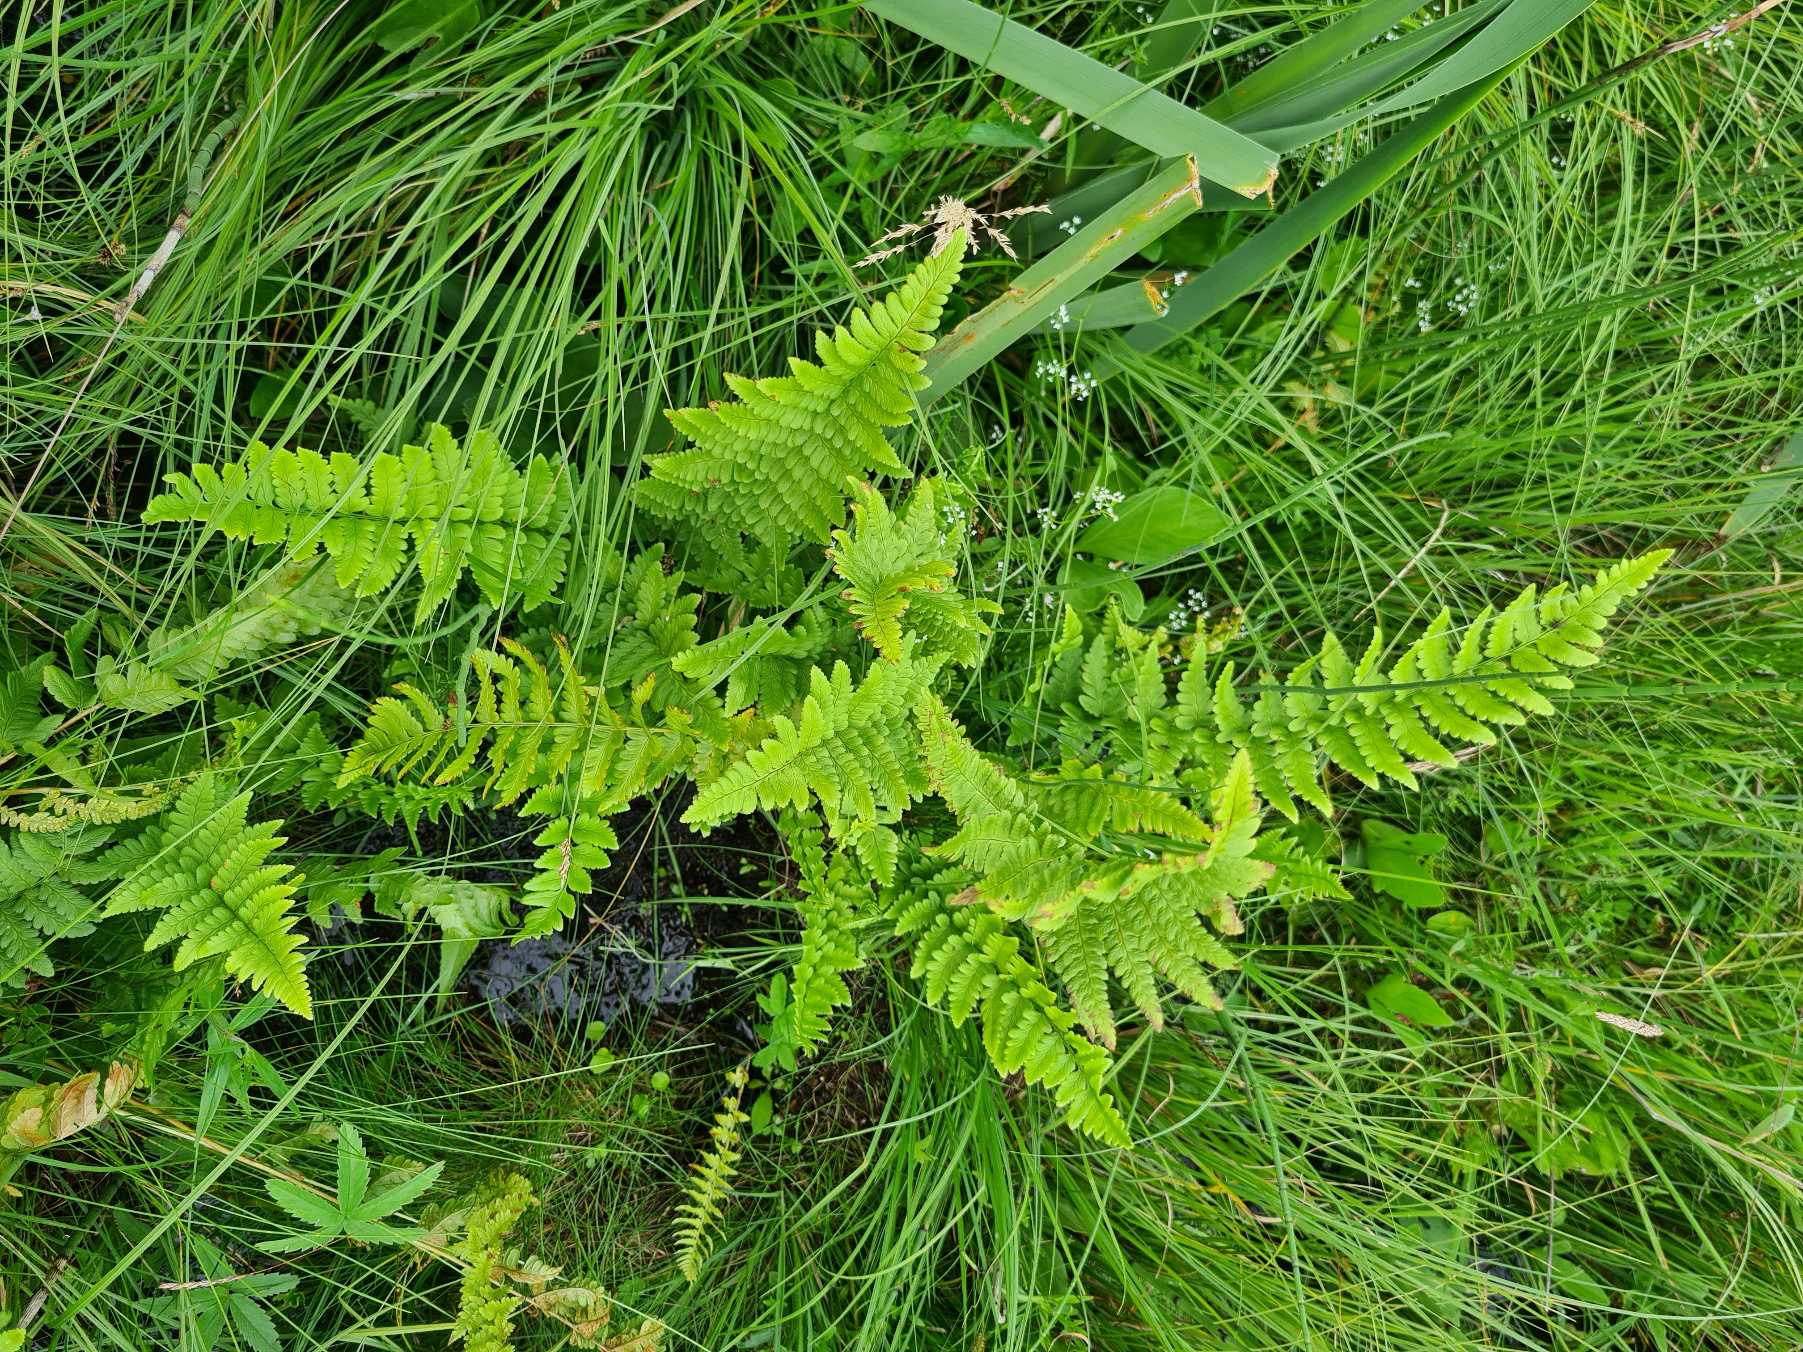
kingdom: Plantae
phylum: Tracheophyta
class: Polypodiopsida
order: Polypodiales
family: Dryopteridaceae
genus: Dryopteris
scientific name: Dryopteris cristata
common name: Butfinnet mangeløv
